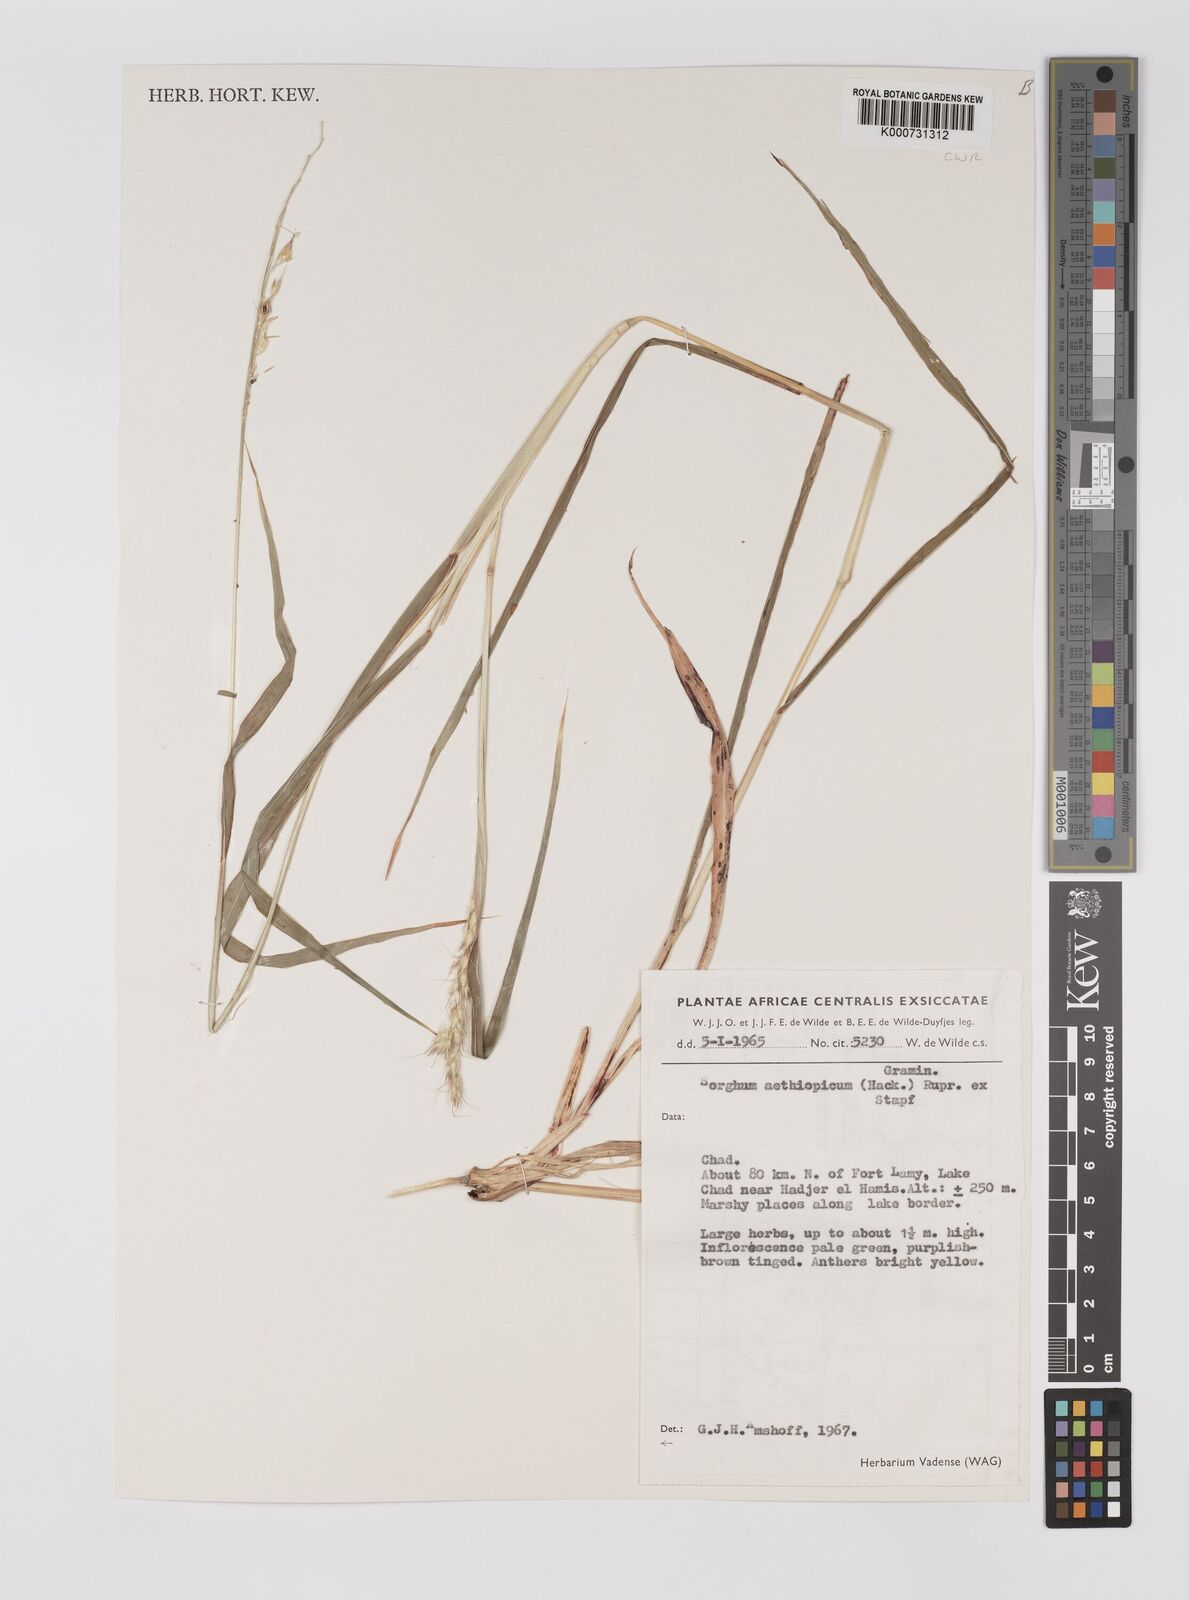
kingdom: Plantae
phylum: Tracheophyta
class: Liliopsida
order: Poales
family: Poaceae
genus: Sorghum
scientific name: Sorghum arundinaceum
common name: Sorghum
